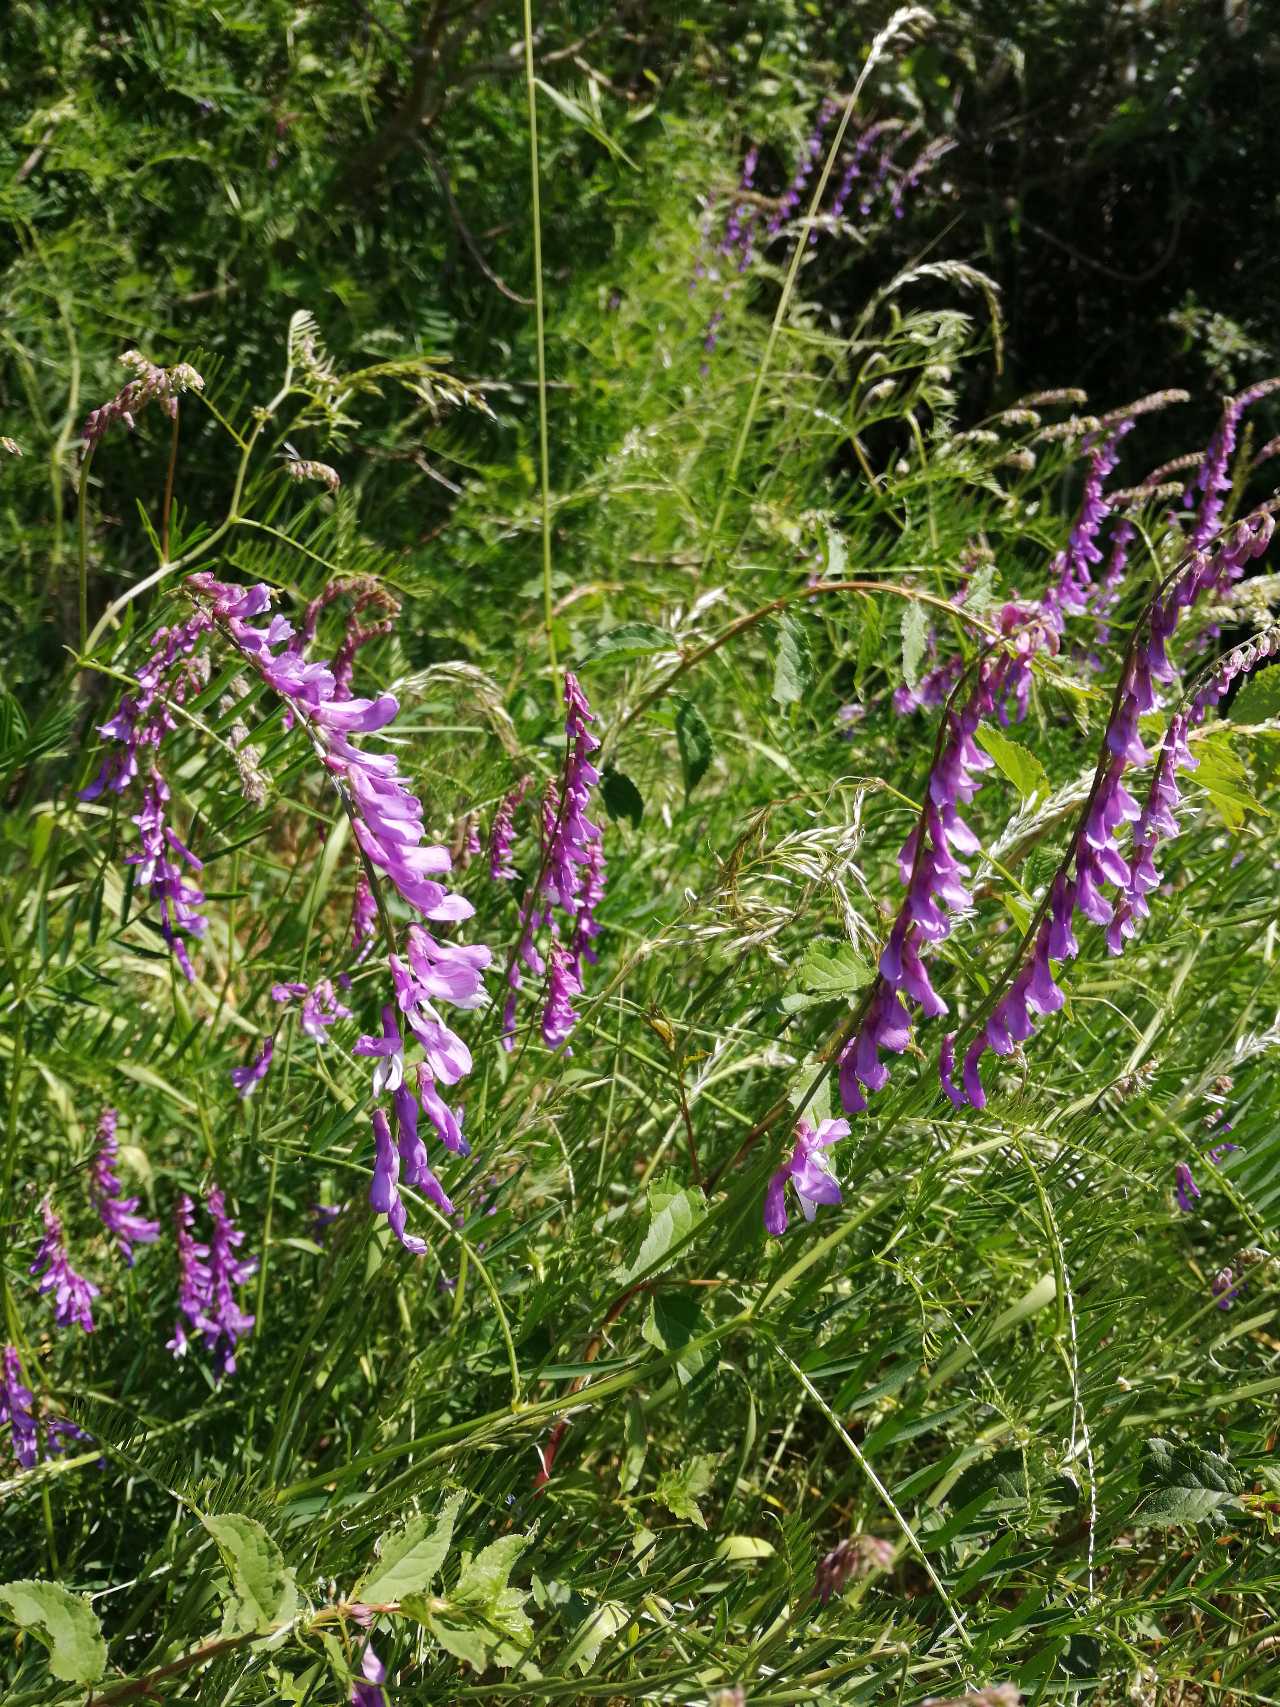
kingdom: Plantae
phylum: Tracheophyta
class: Magnoliopsida
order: Fabales
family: Fabaceae
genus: Vicia
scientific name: Vicia tenuifolia
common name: Langklaset vikke
